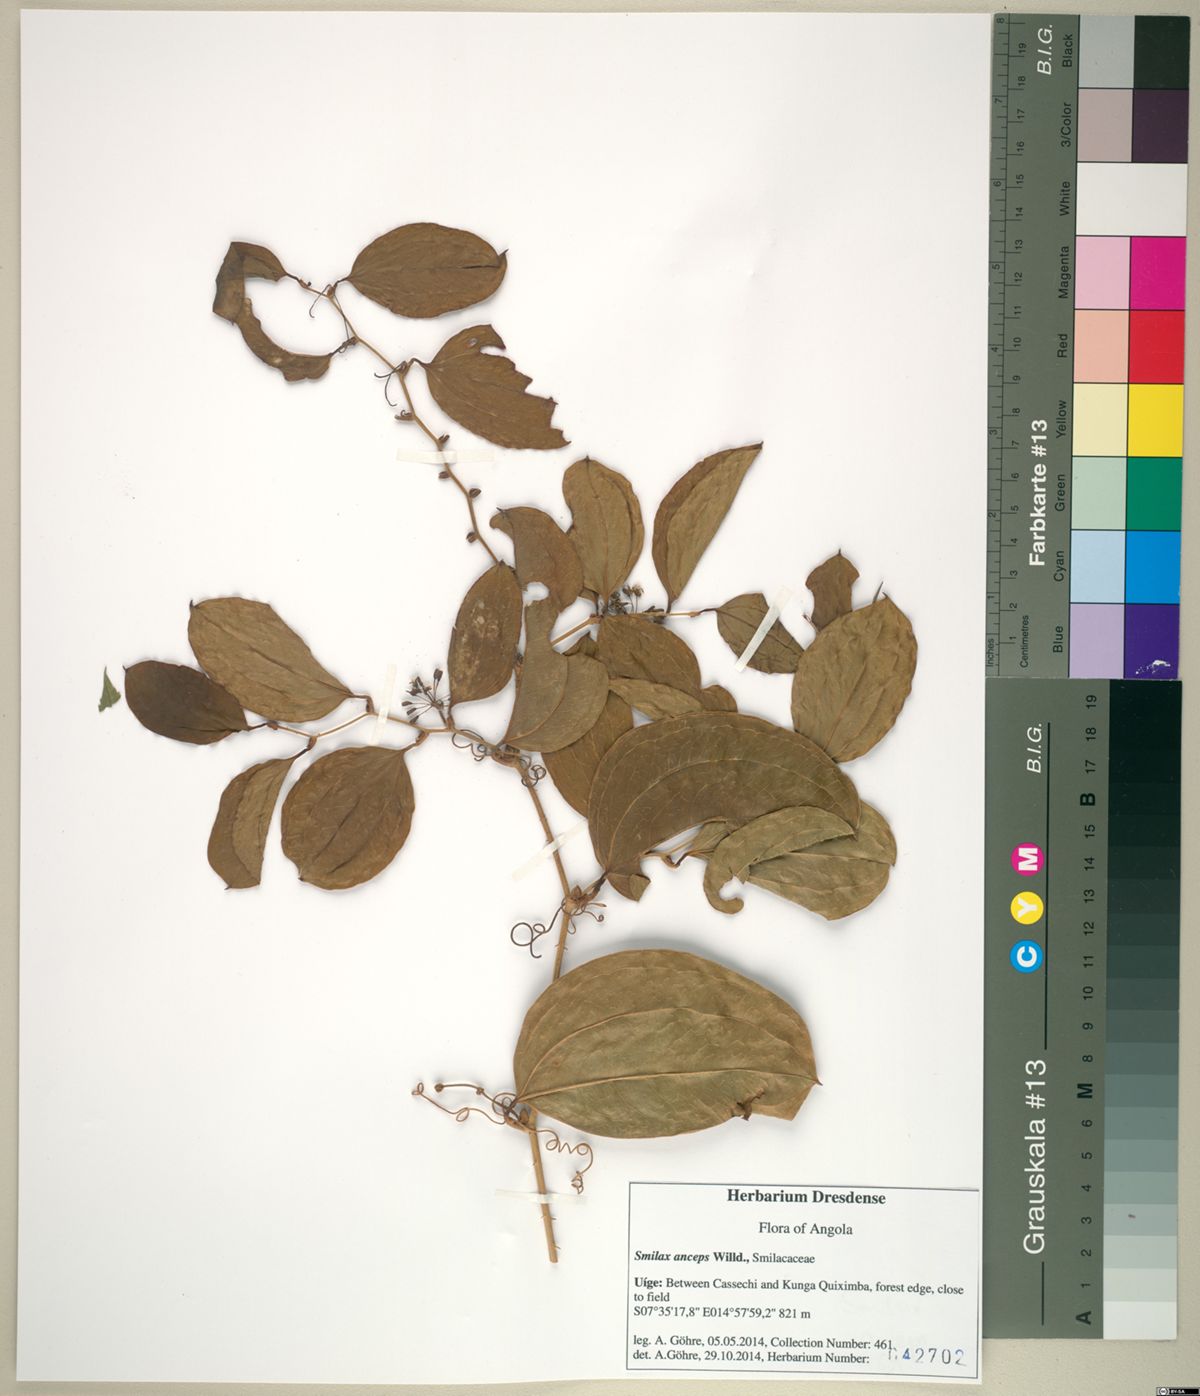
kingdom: Plantae
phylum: Tracheophyta
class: Liliopsida
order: Liliales
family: Smilacaceae
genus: Smilax
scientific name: Smilax anceps
